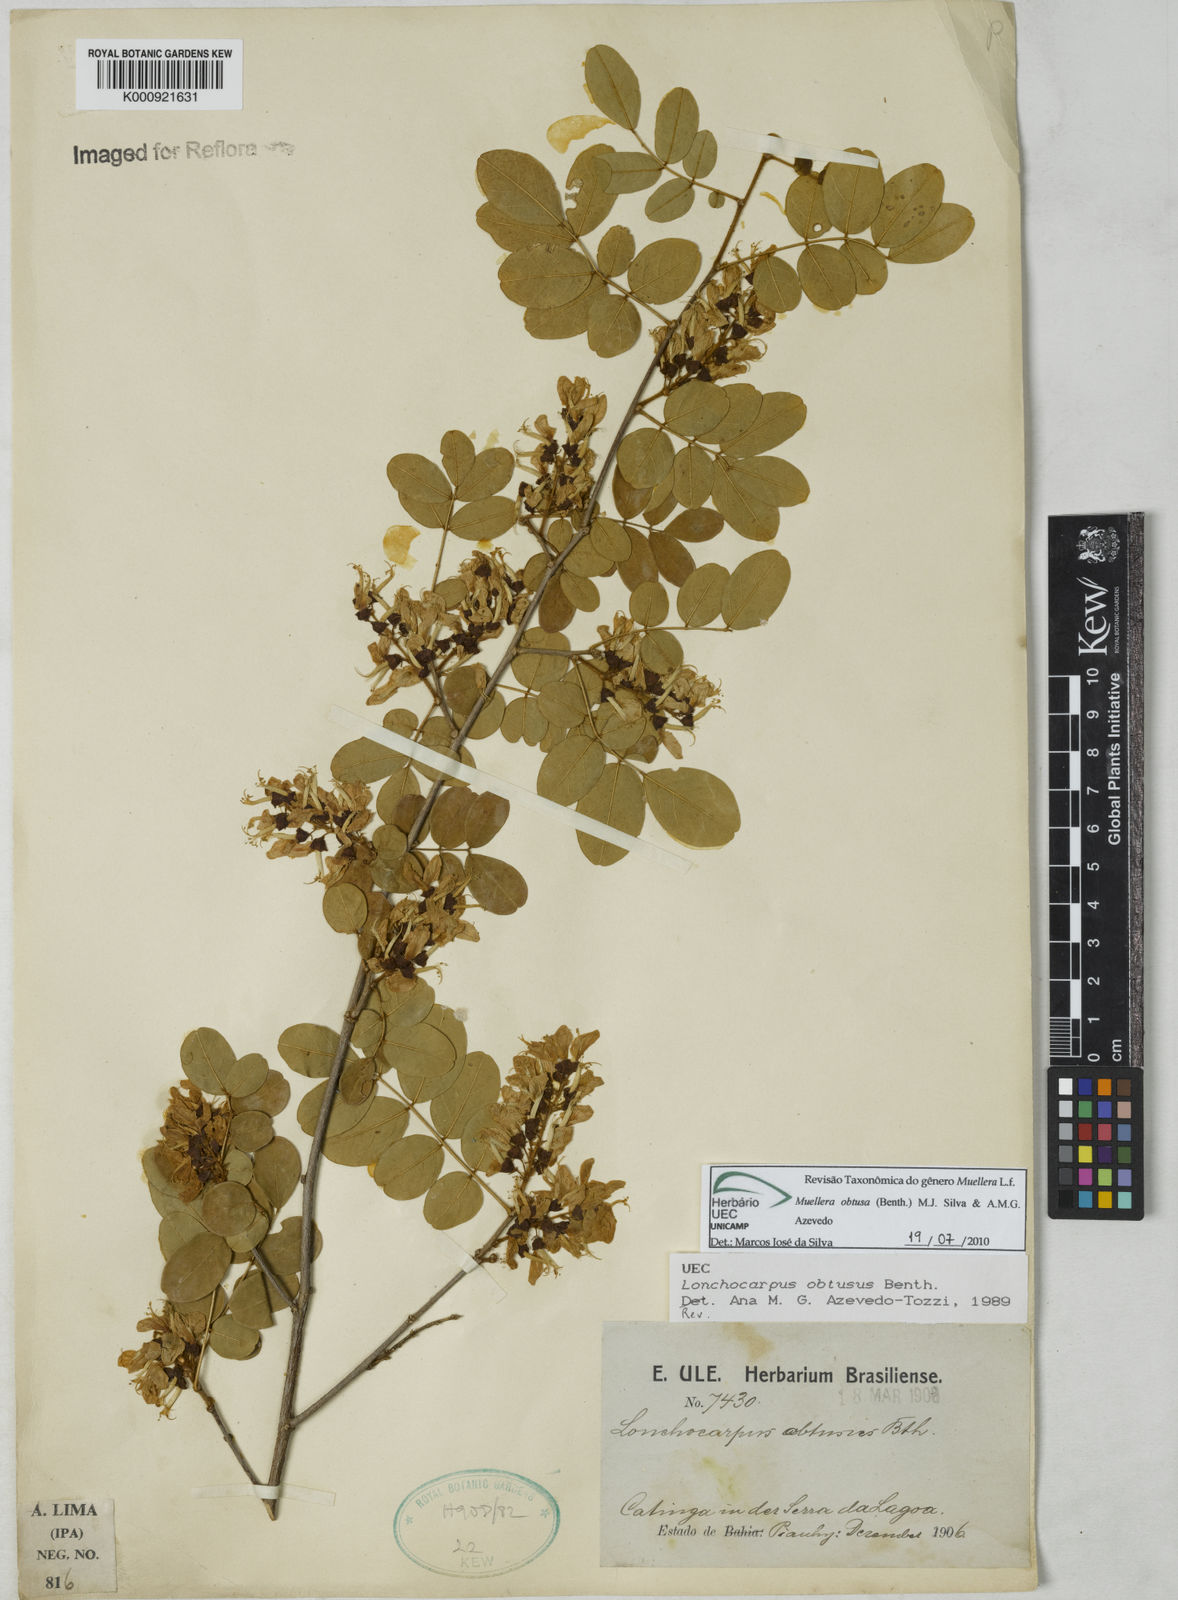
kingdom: Plantae
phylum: Tracheophyta
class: Magnoliopsida
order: Fabales
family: Fabaceae
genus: Muellera
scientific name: Muellera obtusa
